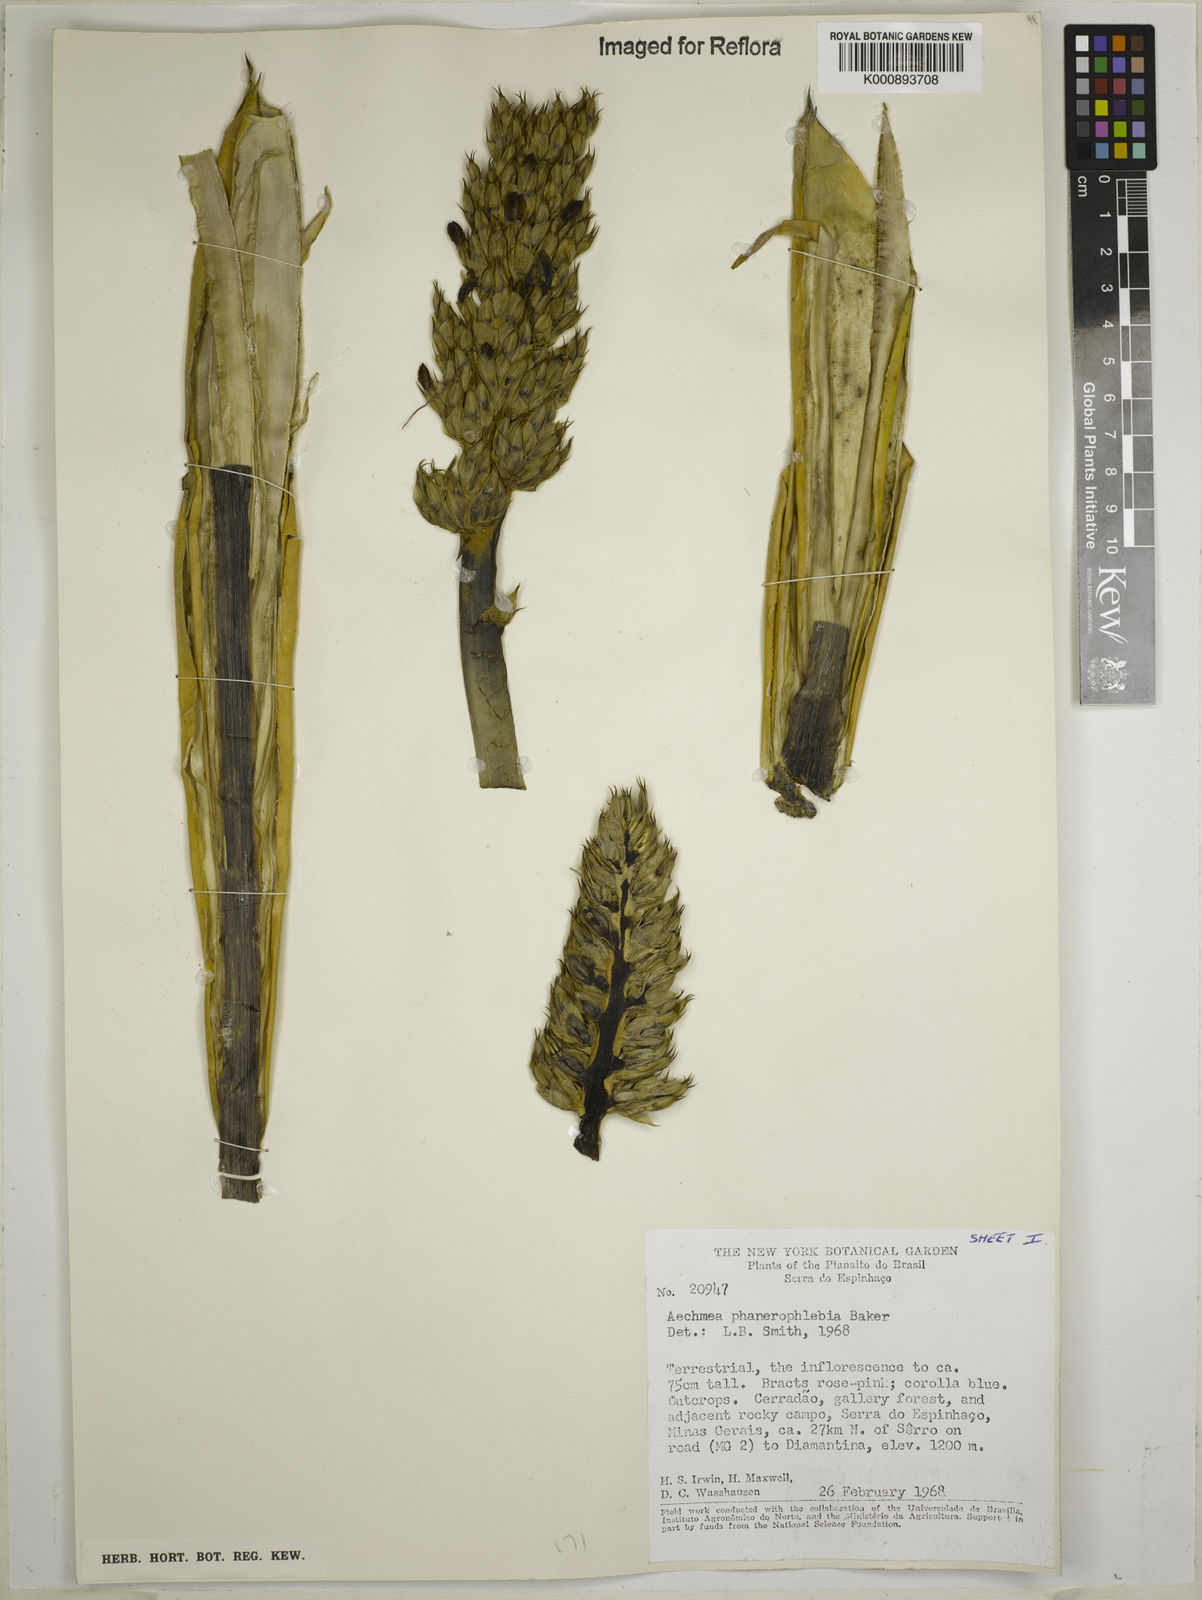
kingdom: Plantae
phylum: Tracheophyta
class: Liliopsida
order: Poales
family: Bromeliaceae
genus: Aechmea
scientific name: Aechmea phanerophlebia
